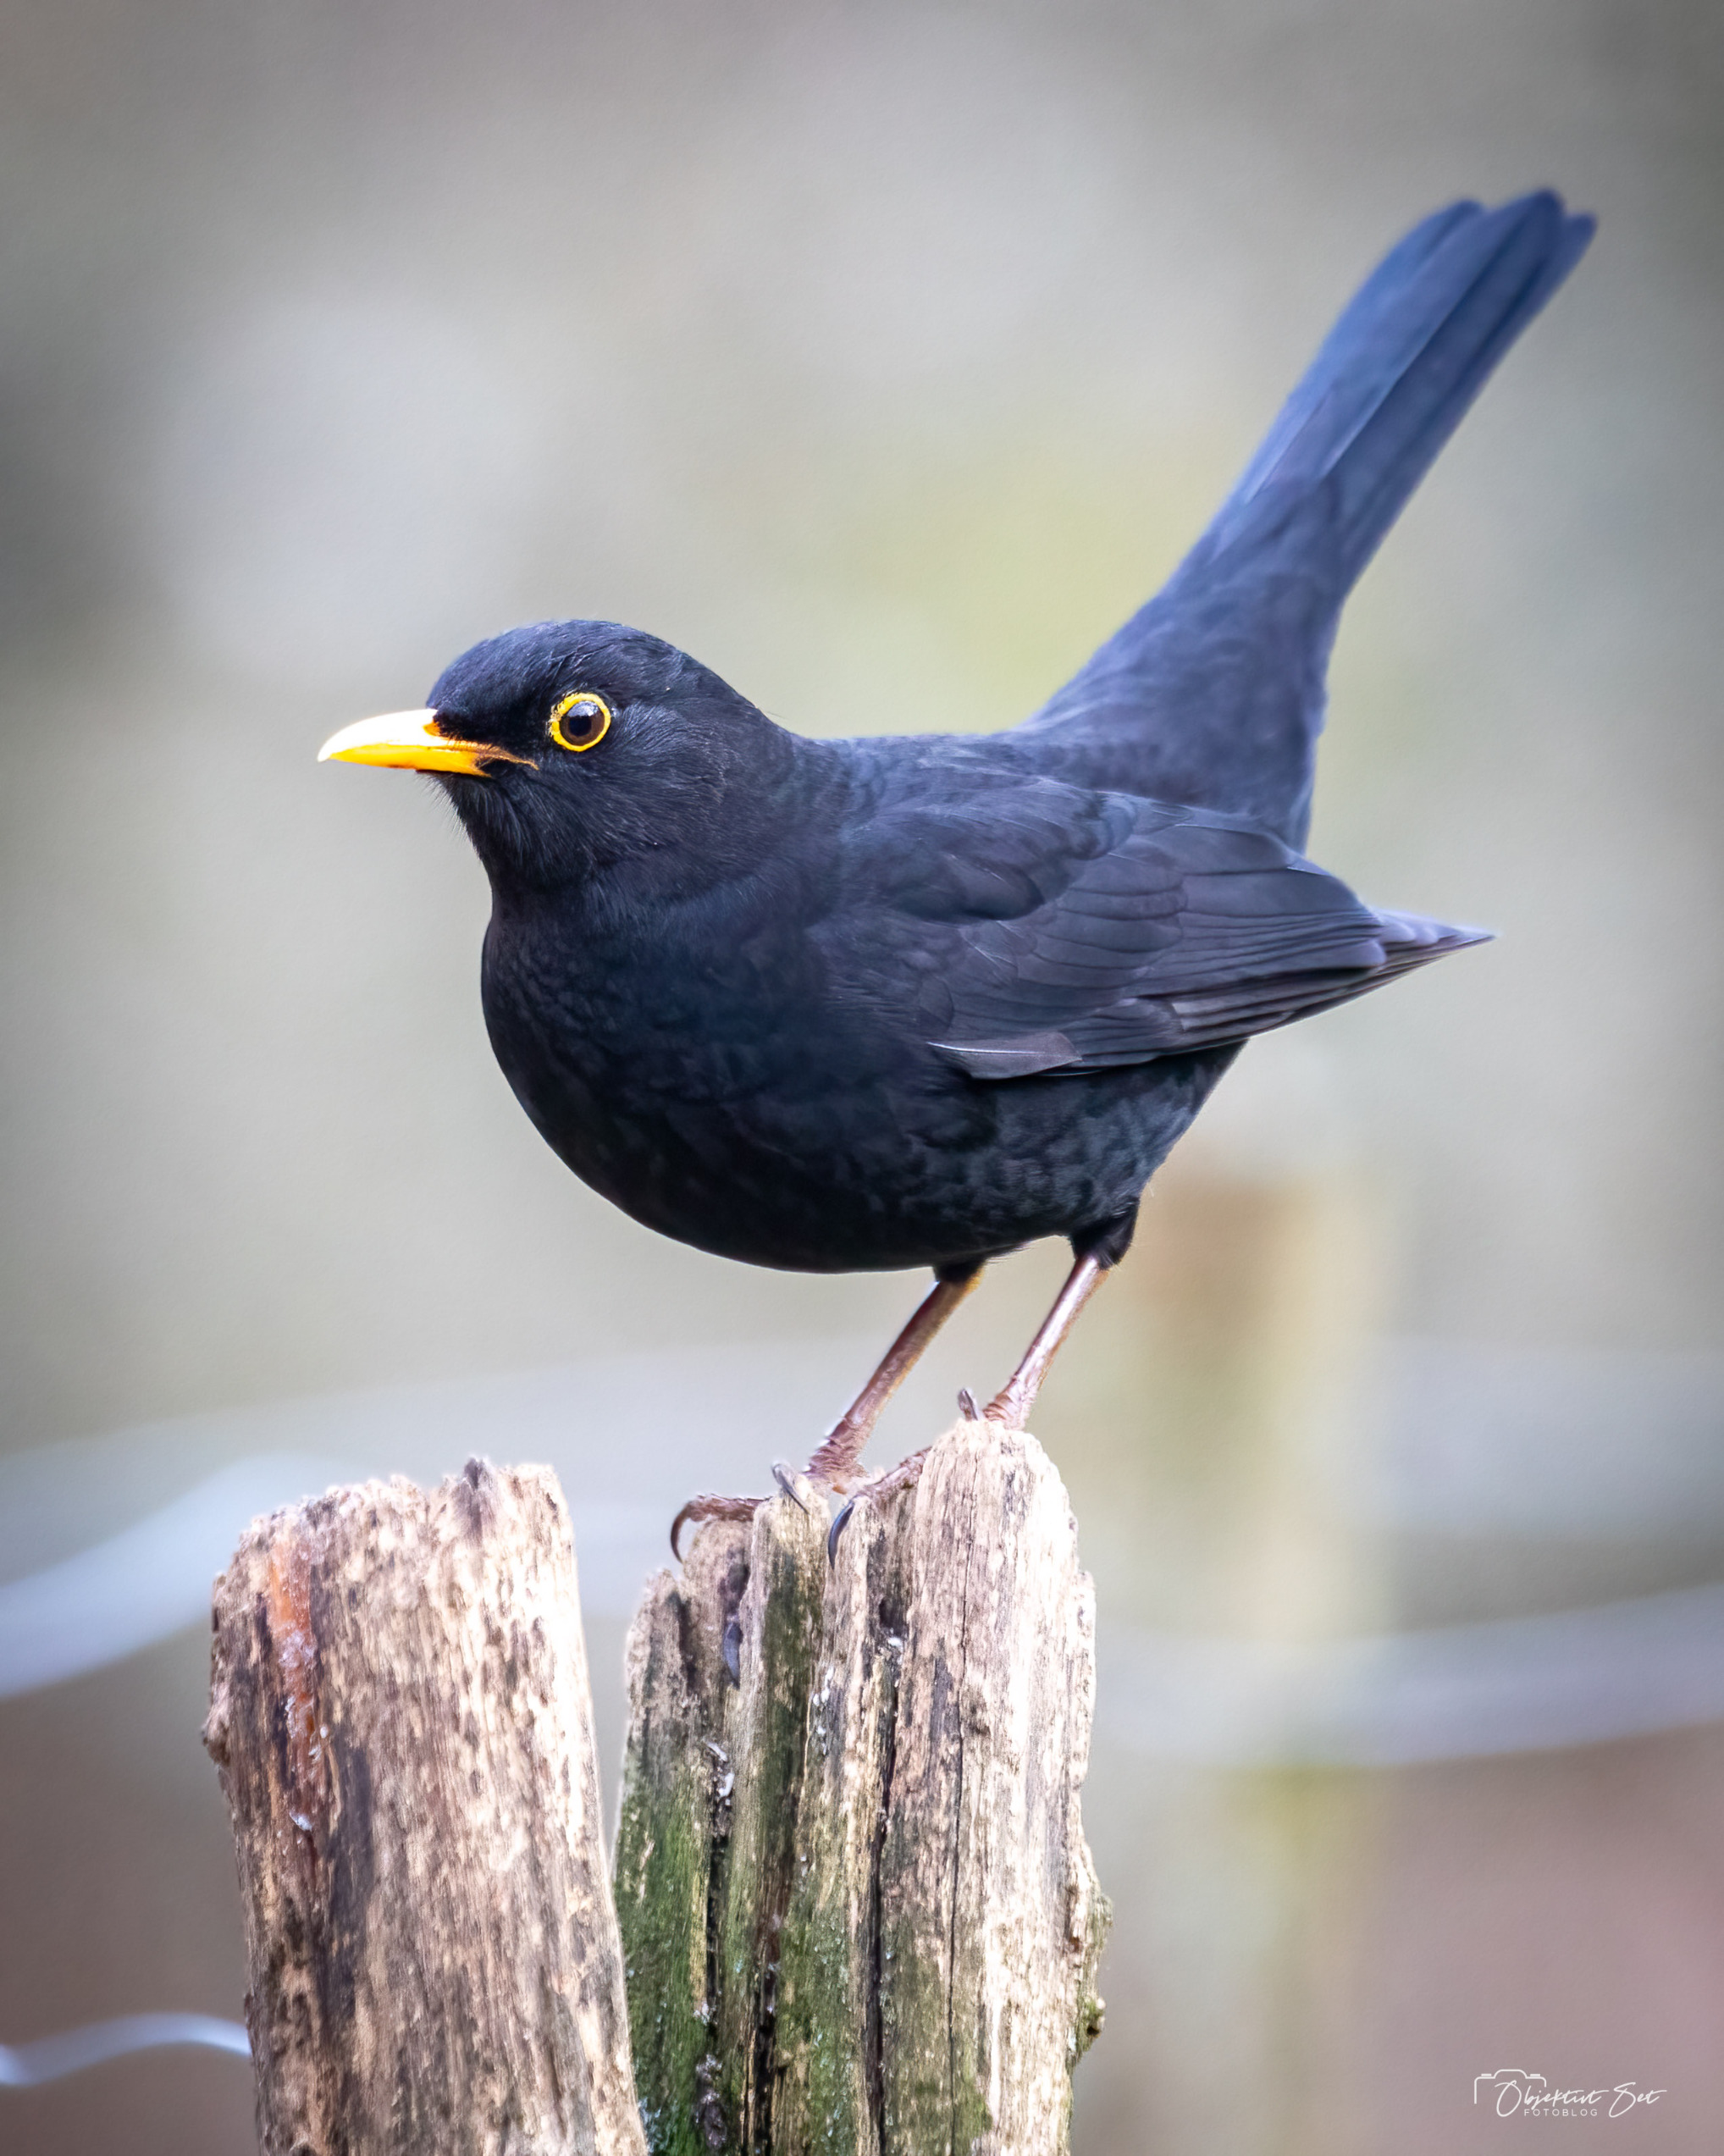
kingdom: Animalia
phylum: Chordata
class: Aves
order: Passeriformes
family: Turdidae
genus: Turdus
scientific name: Turdus merula
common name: Solsort
